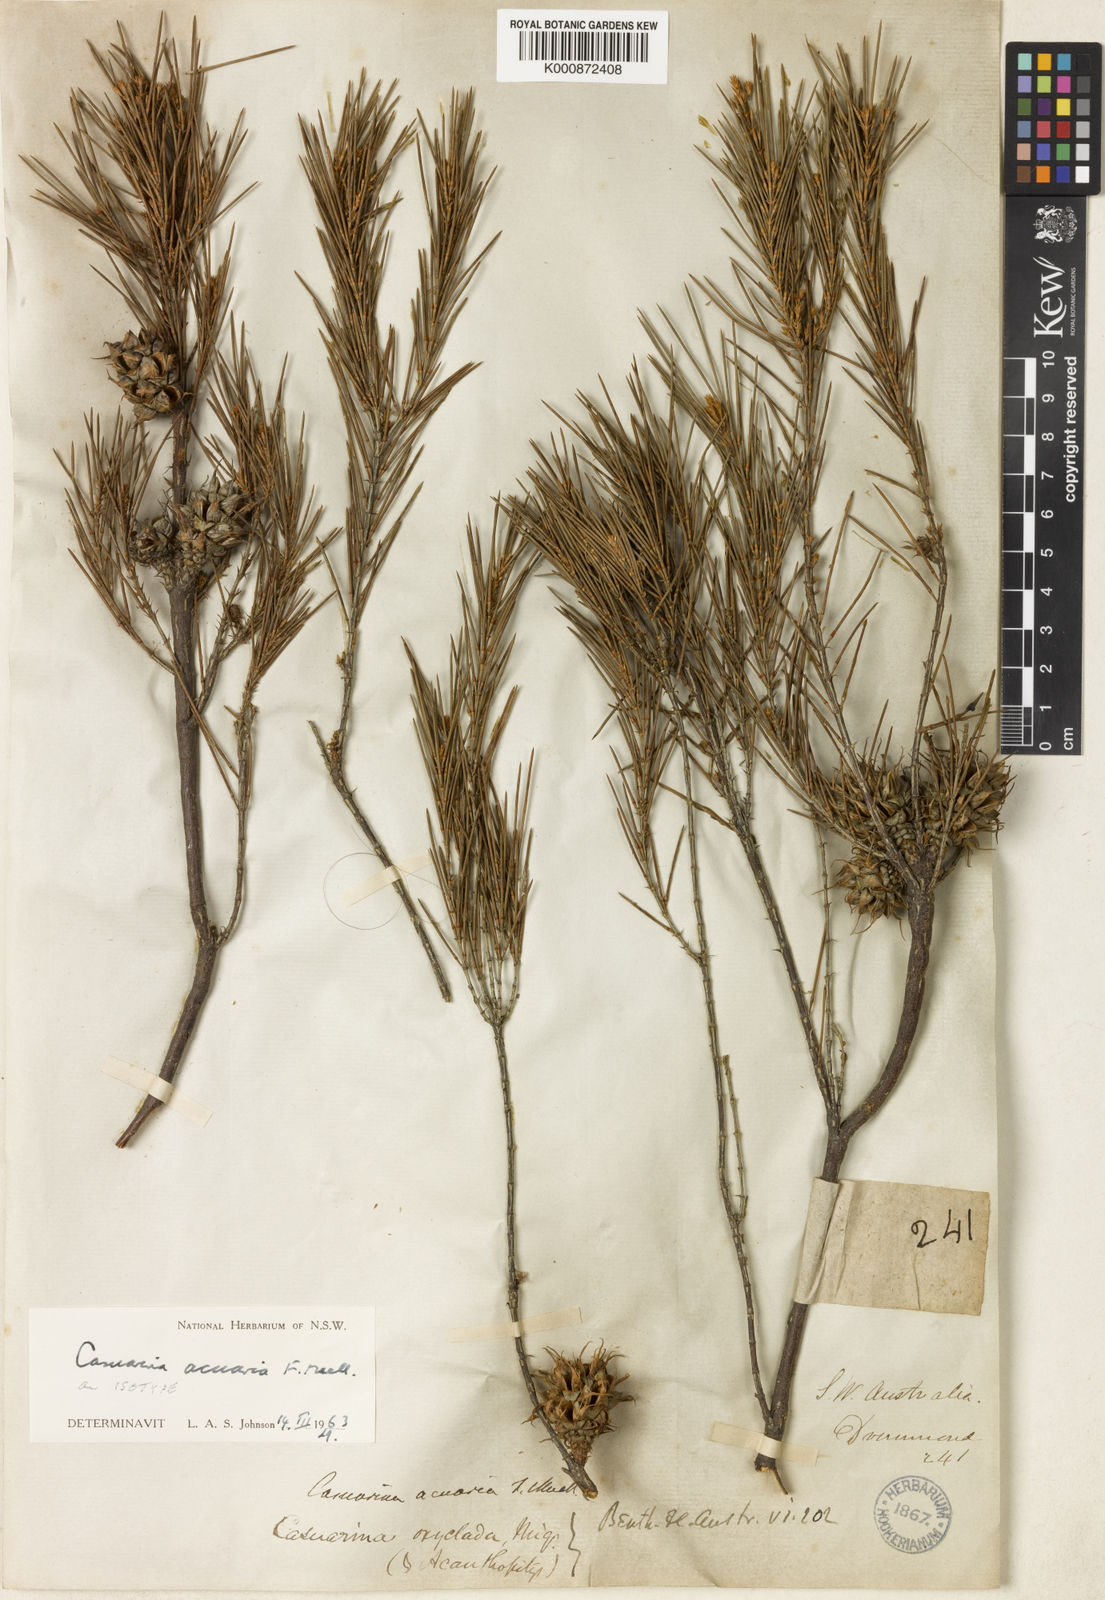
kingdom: Plantae
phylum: Tracheophyta
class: Magnoliopsida
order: Fagales
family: Casuarinaceae
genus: Allocasuarina
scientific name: Allocasuarina acuaria
